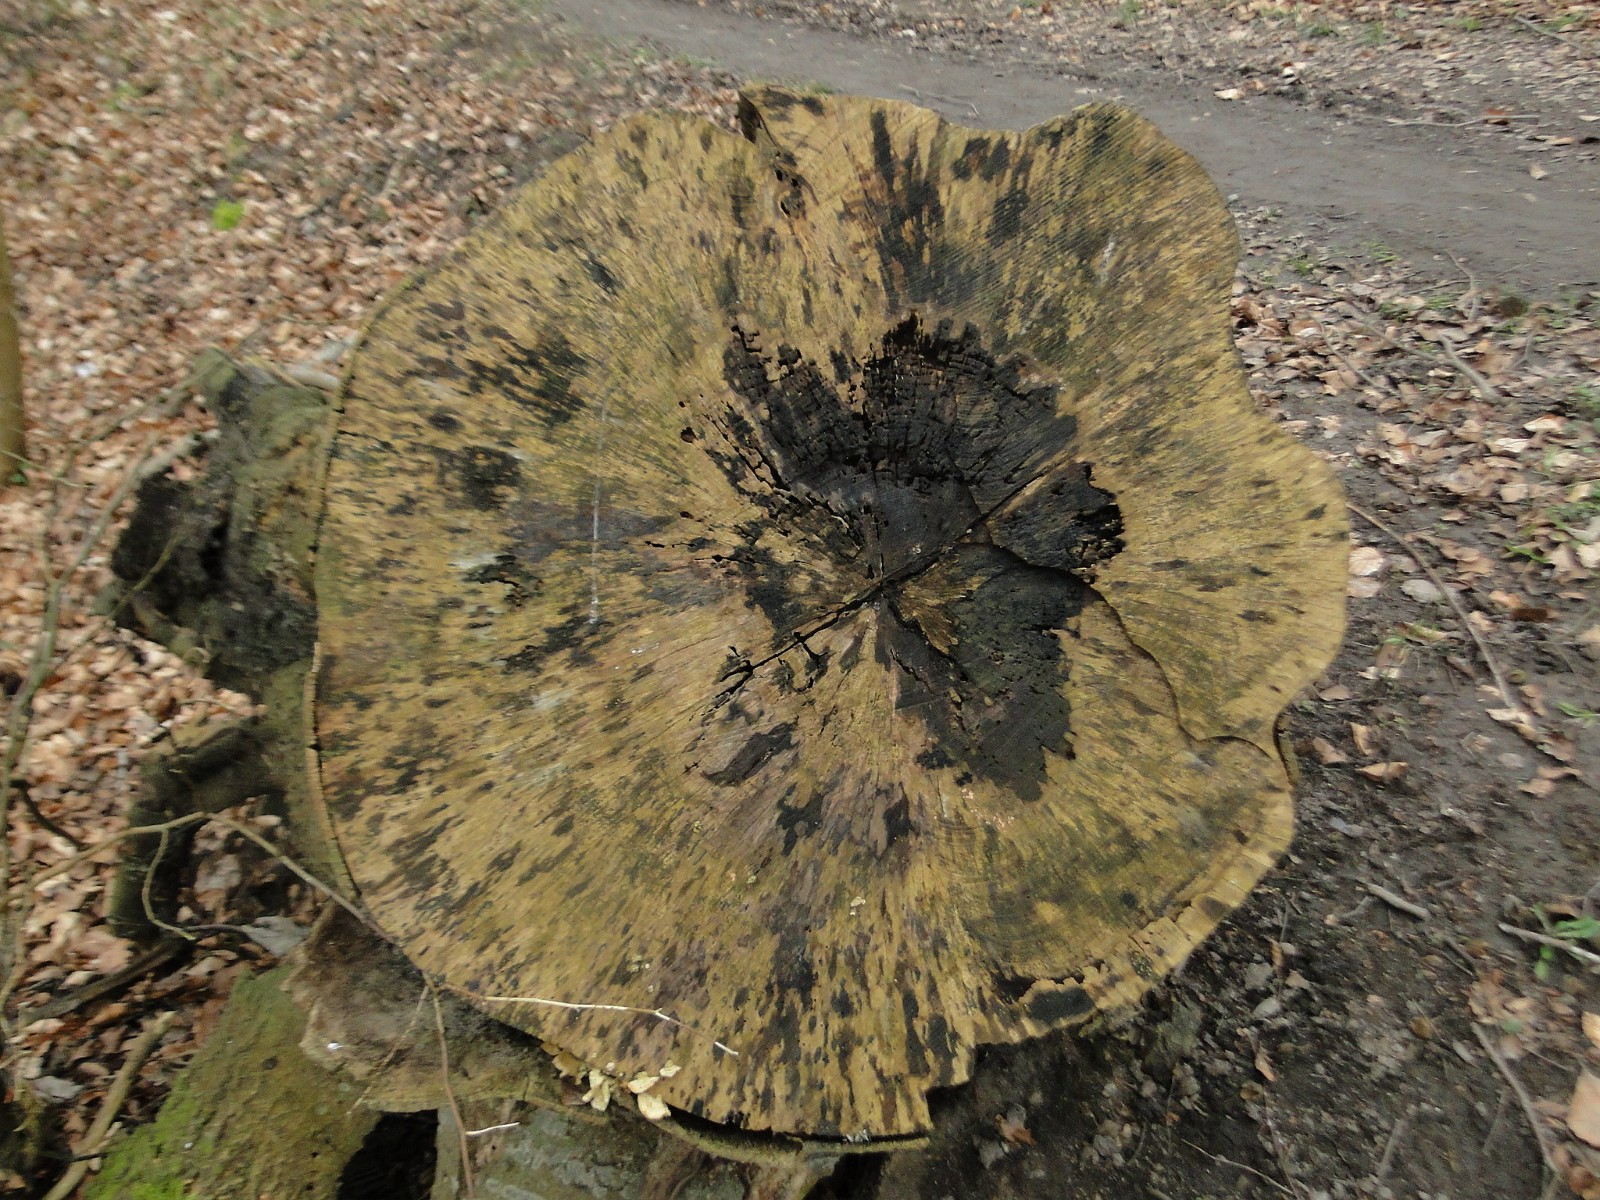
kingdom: Fungi
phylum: Ascomycota
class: Leotiomycetes
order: Helotiales
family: Helotiaceae
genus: Bispora
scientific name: Bispora pallescens
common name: måtte-snitskive
